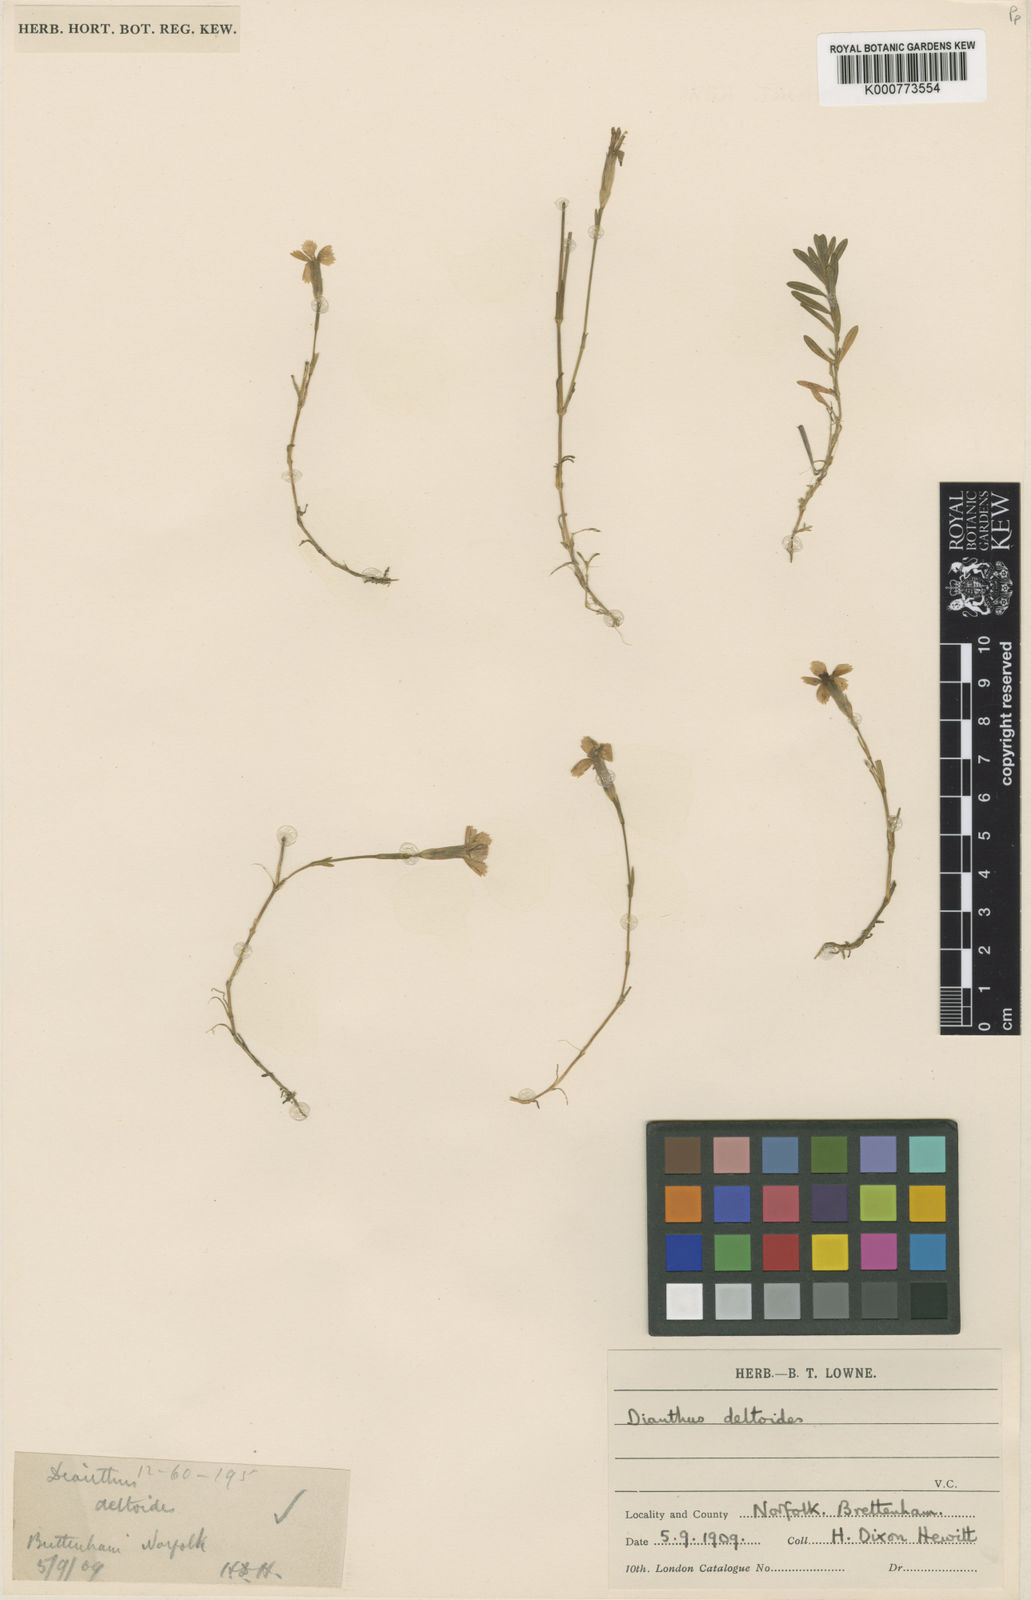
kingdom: Plantae
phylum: Tracheophyta
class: Magnoliopsida
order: Caryophyllales
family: Caryophyllaceae
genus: Dianthus
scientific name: Dianthus deltoides
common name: Maiden pink
